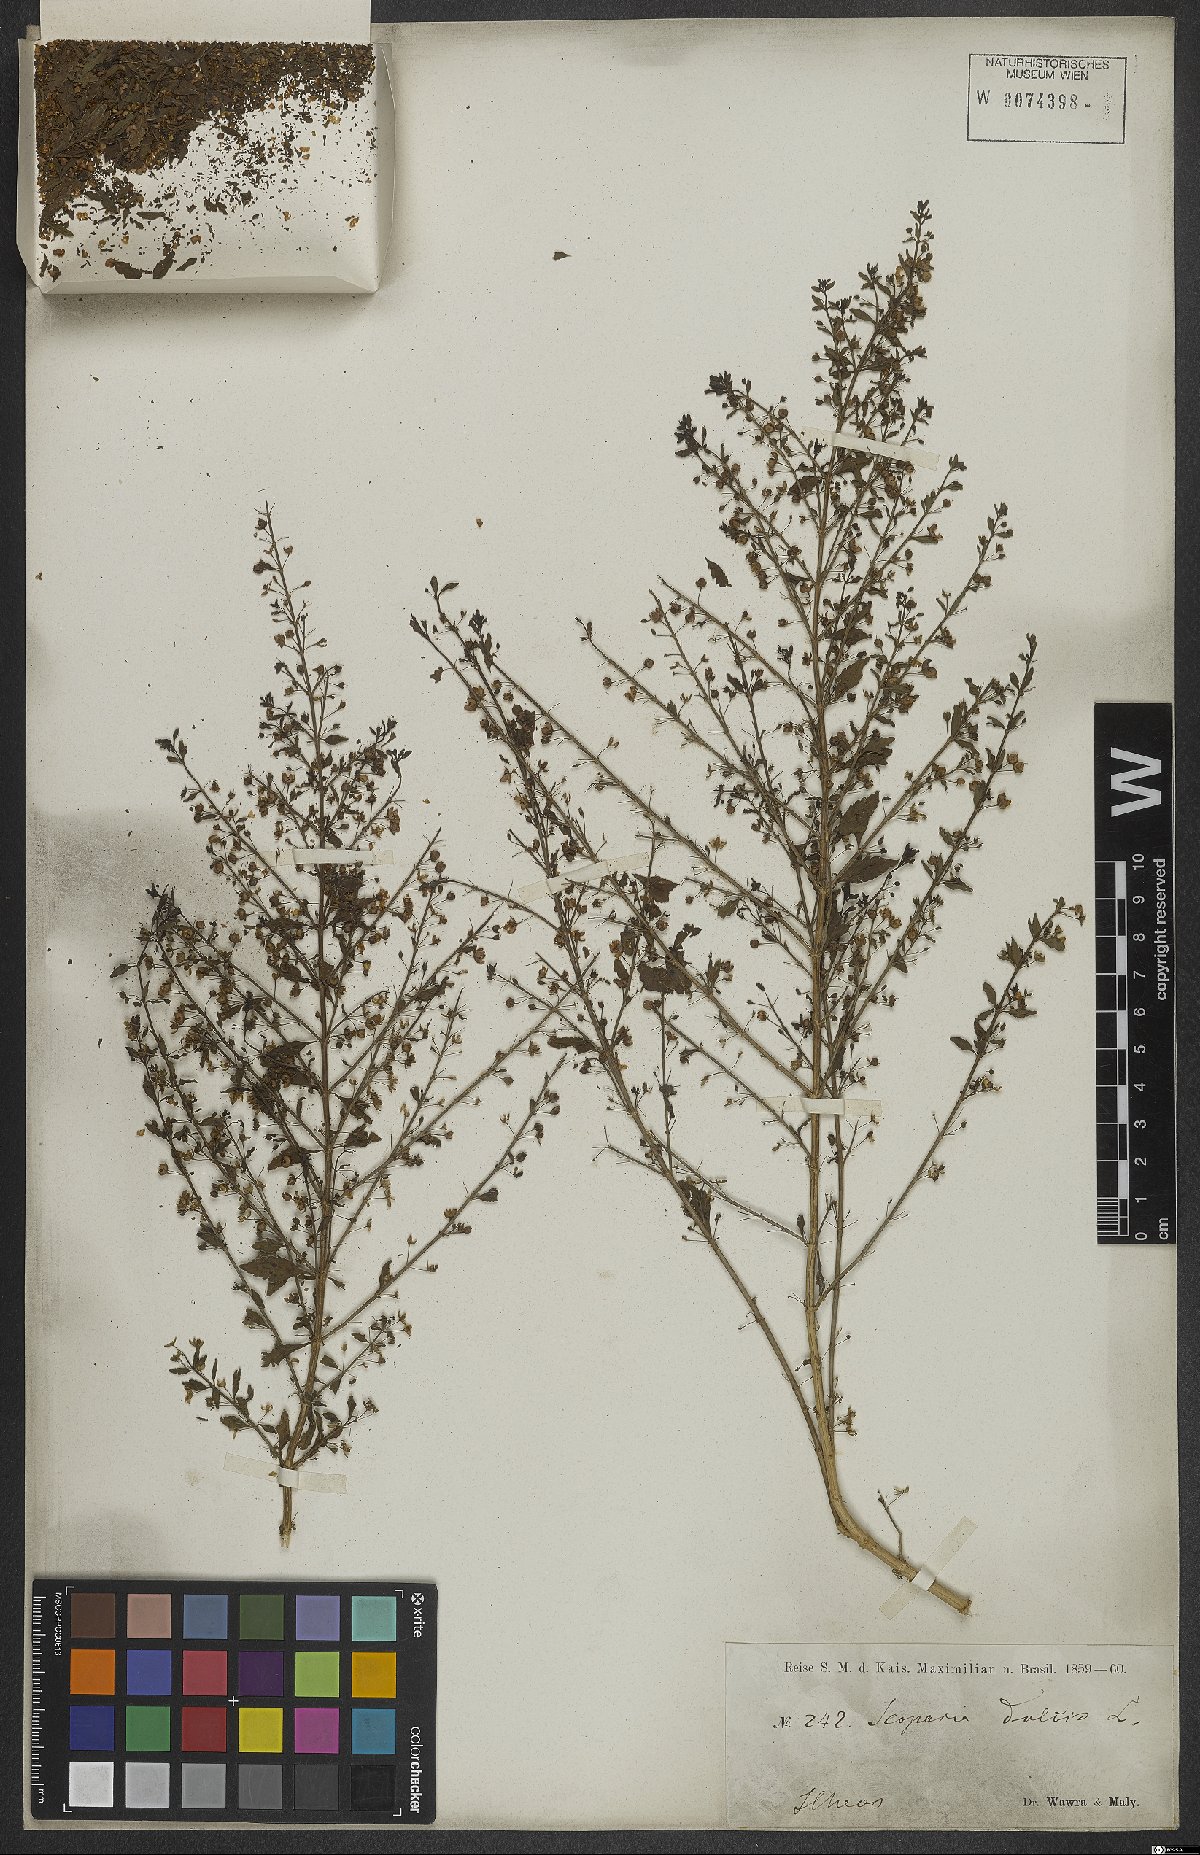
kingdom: Plantae
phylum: Tracheophyta
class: Magnoliopsida
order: Lamiales
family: Plantaginaceae
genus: Scoparia
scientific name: Scoparia dulcis
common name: Scoparia-weed
